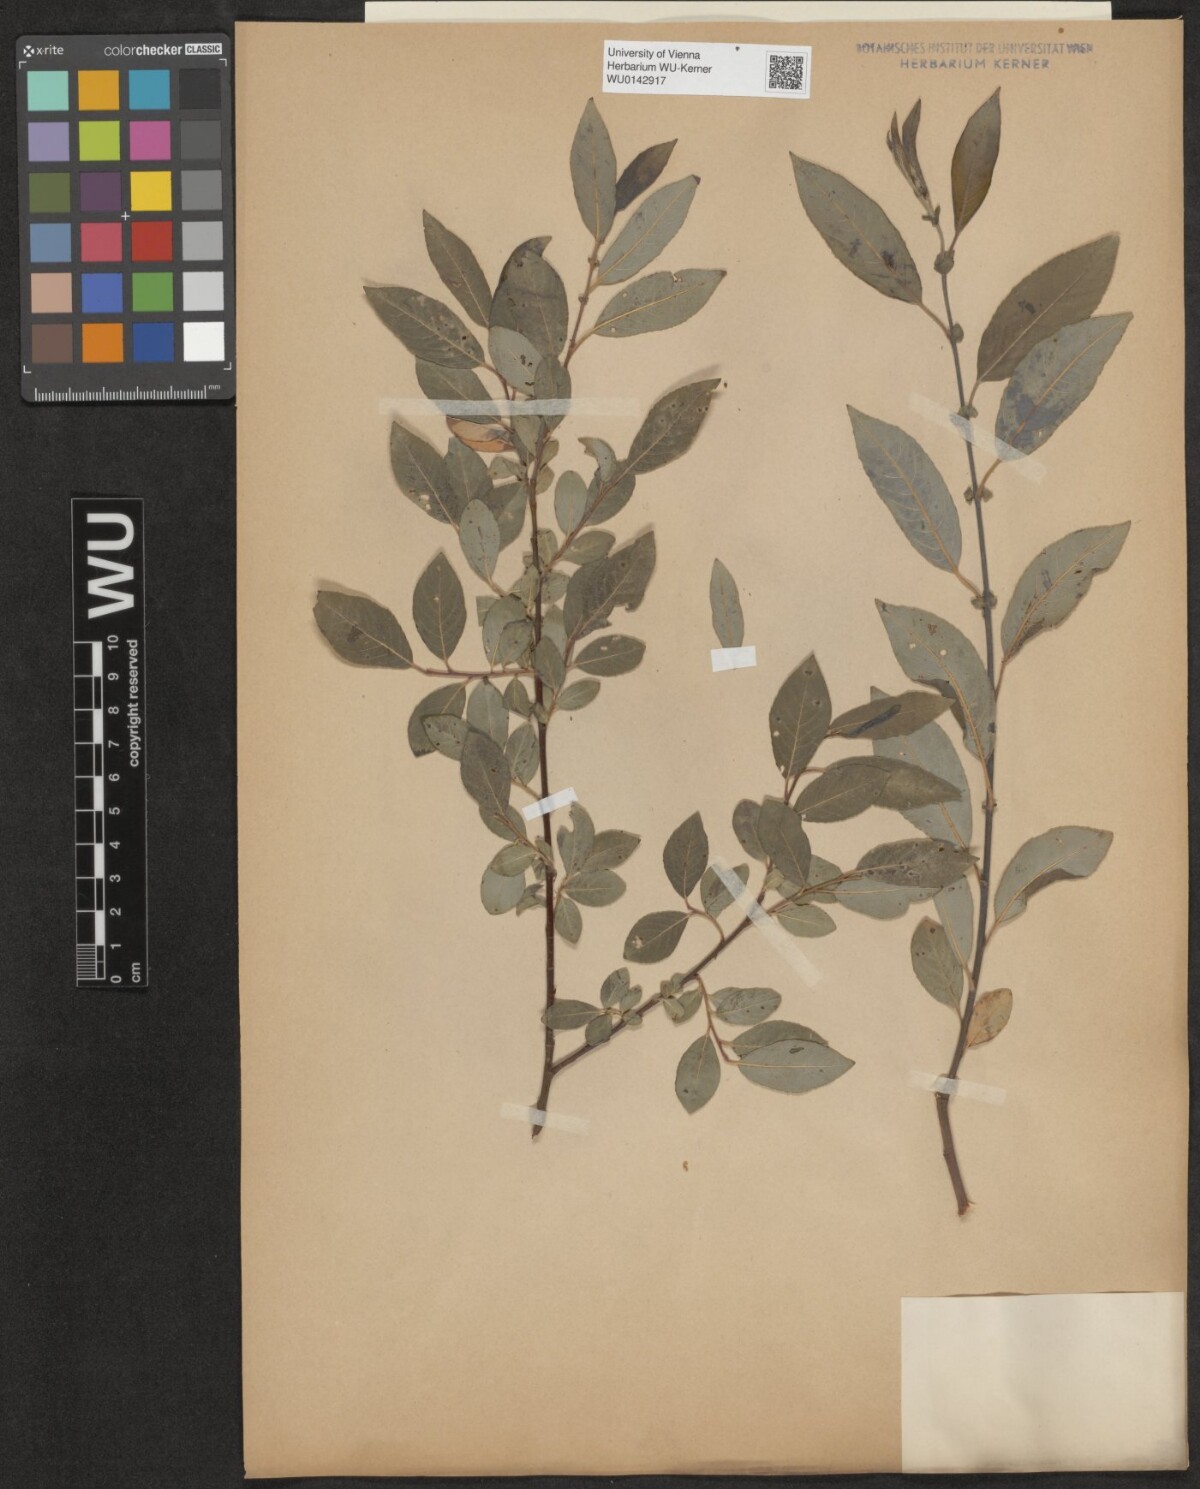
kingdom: Plantae
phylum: Tracheophyta
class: Magnoliopsida
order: Malpighiales
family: Salicaceae
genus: Salix
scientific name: Salix myrsinifolia
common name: Dark-leaved willow
